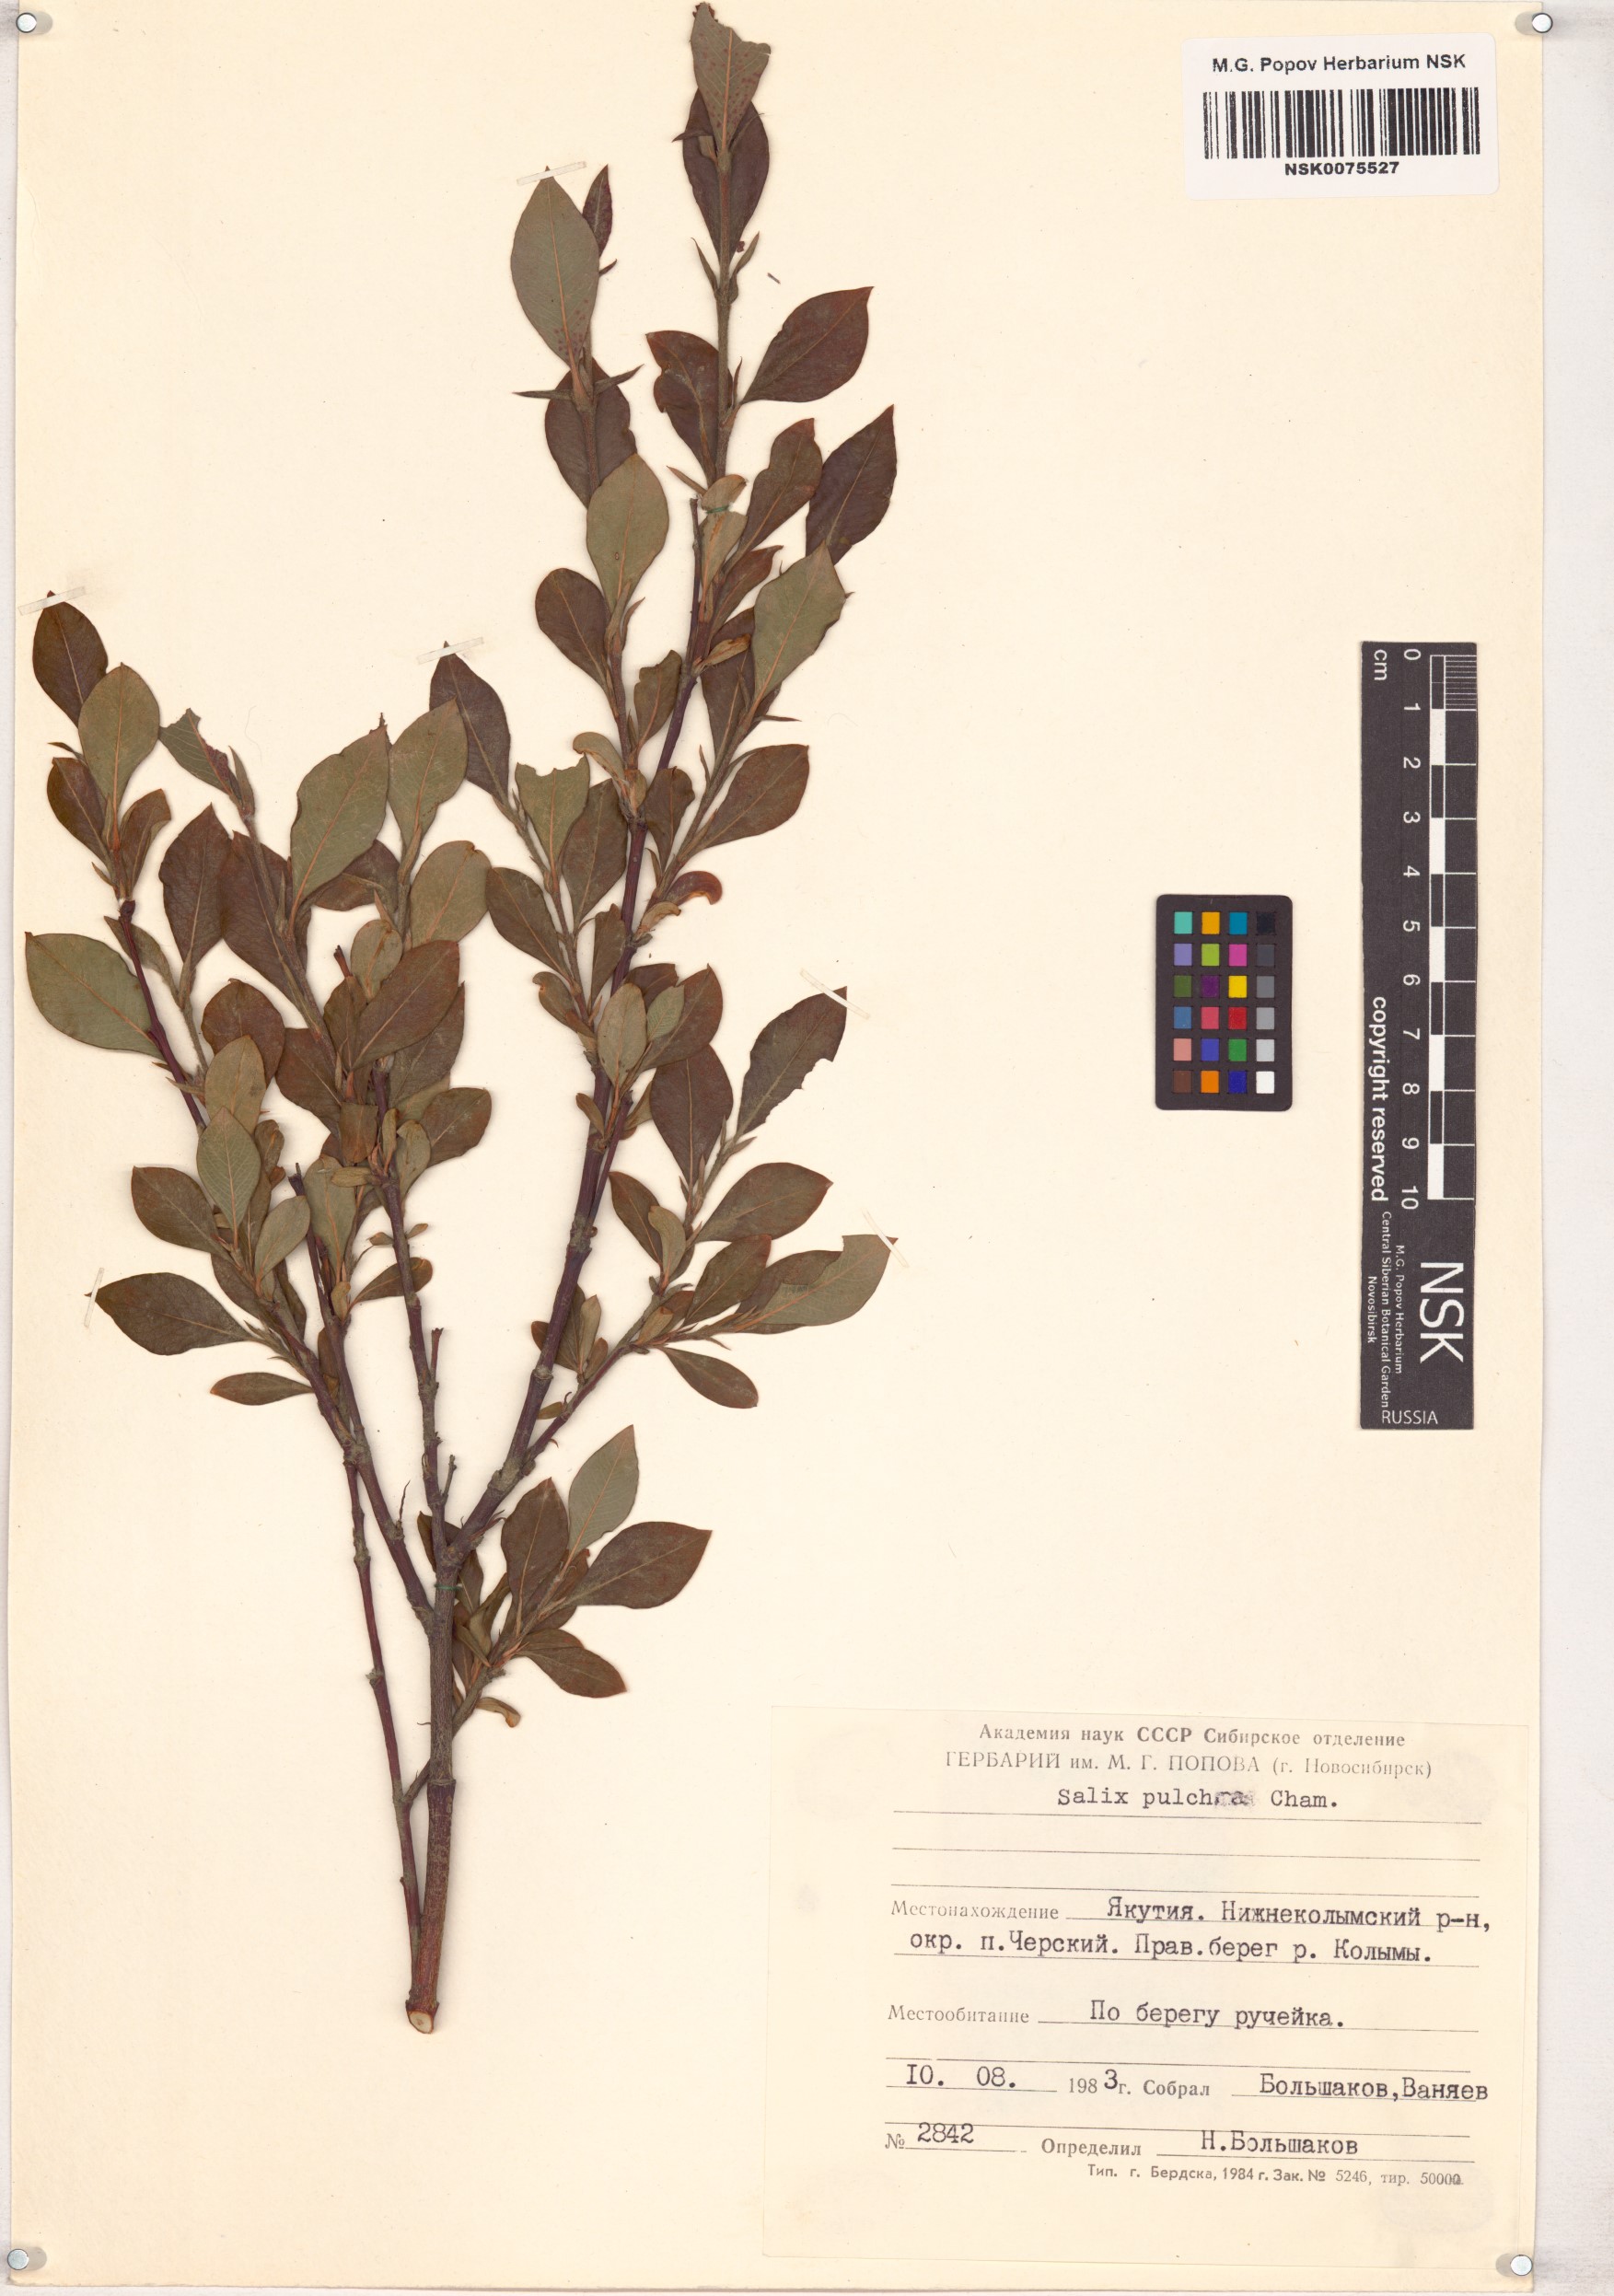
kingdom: Plantae
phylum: Tracheophyta
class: Magnoliopsida
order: Malpighiales
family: Salicaceae
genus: Salix
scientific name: Salix pulchra
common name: Diamond-leaved willow
